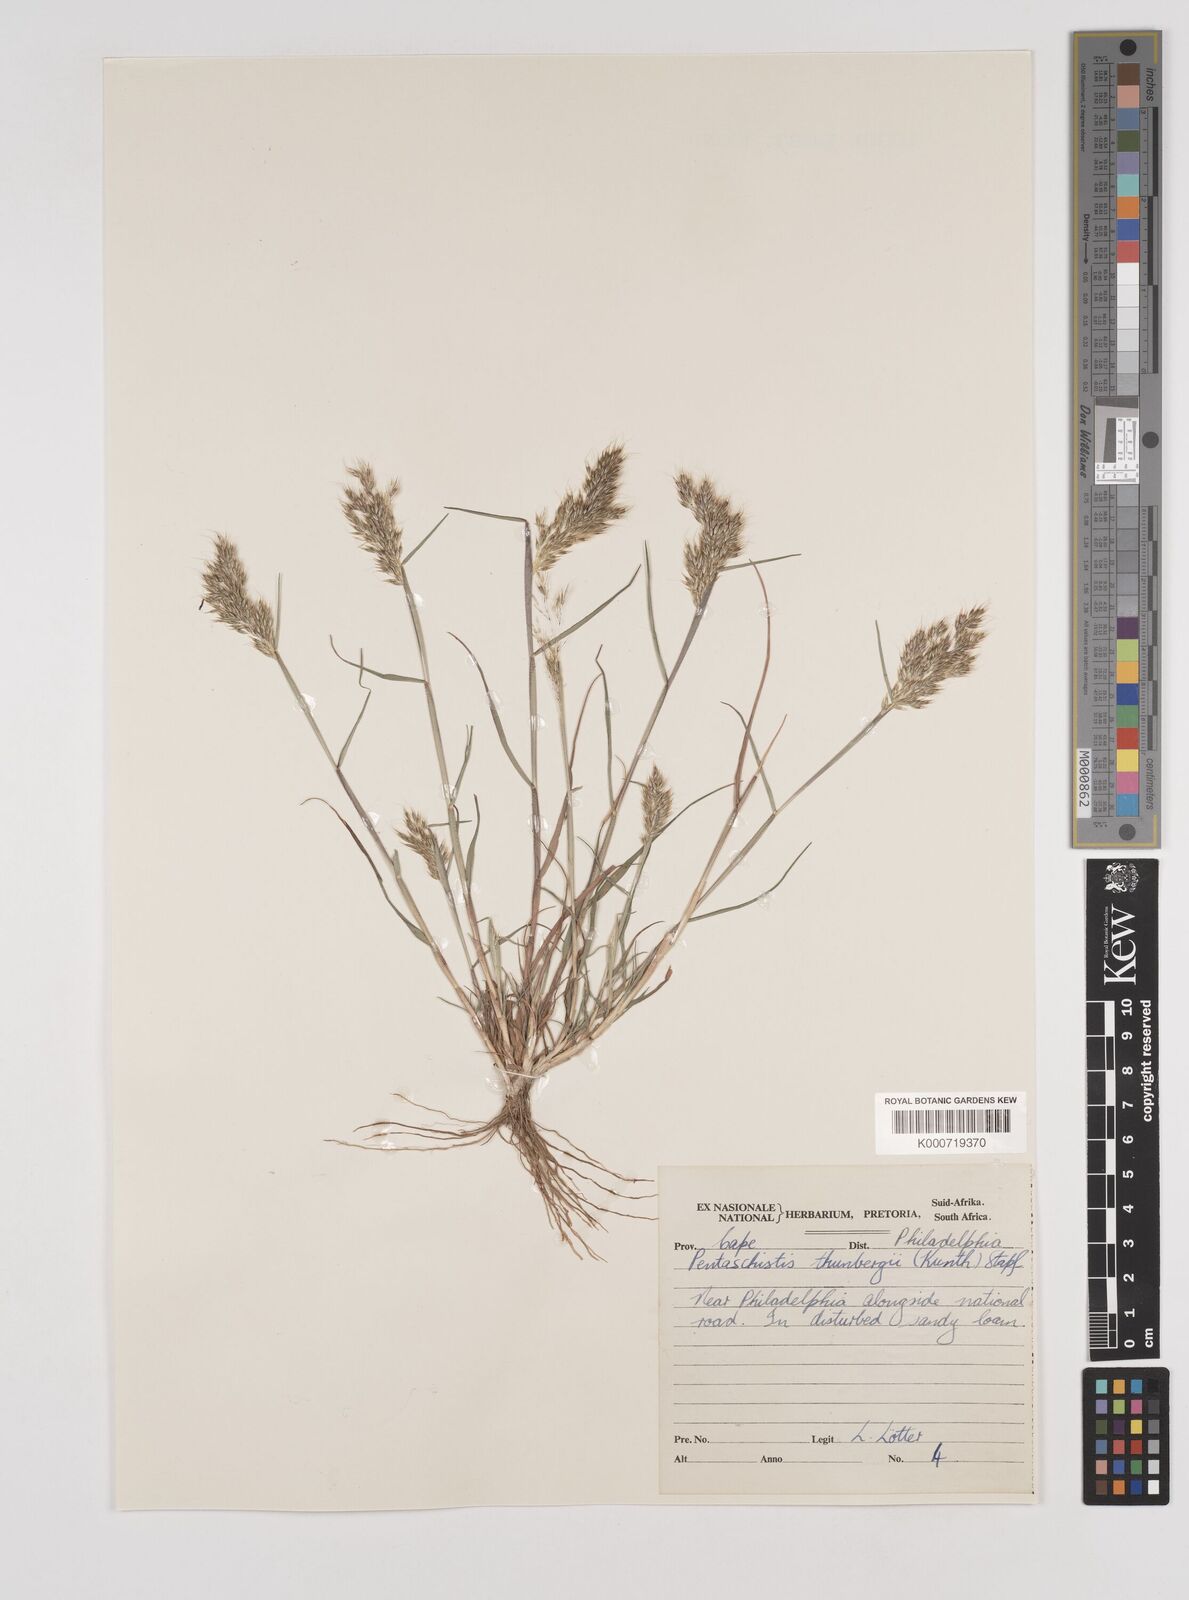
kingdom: Plantae
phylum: Tracheophyta
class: Liliopsida
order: Poales
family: Poaceae
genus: Pentameris
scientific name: Pentameris triseta
